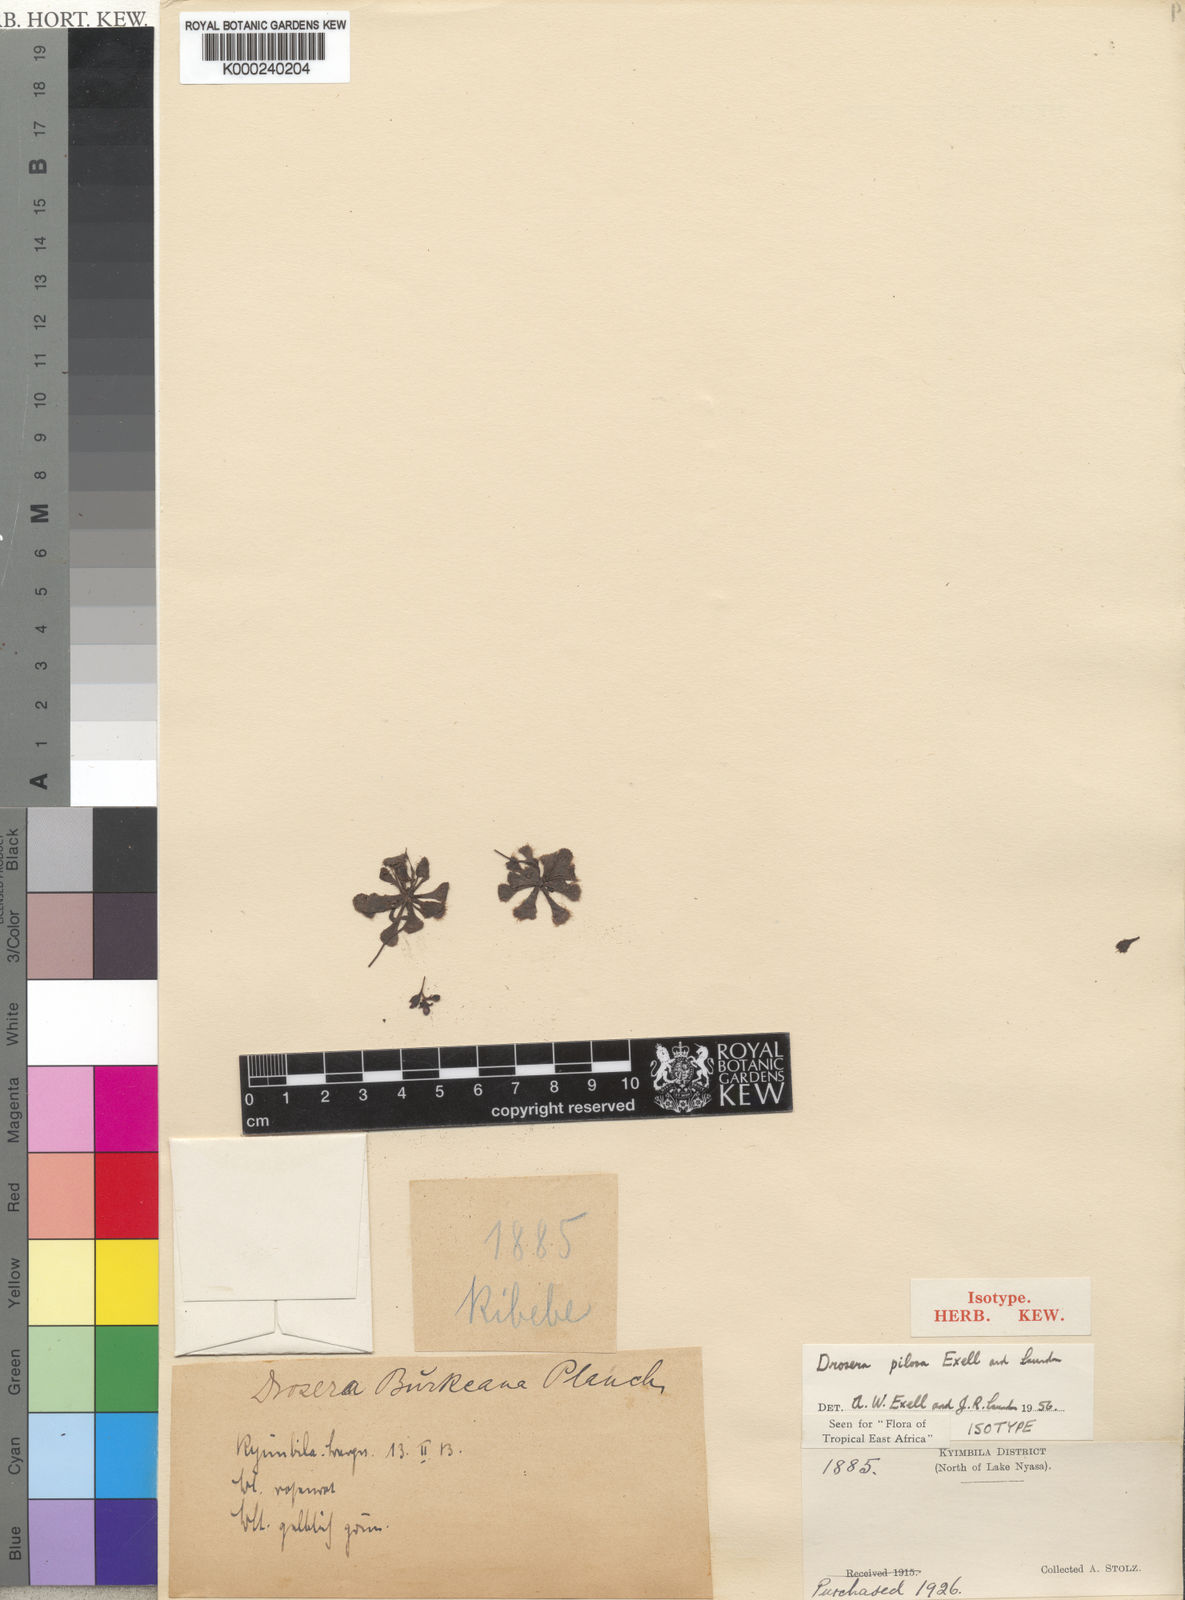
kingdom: Plantae
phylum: Tracheophyta
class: Magnoliopsida
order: Caryophyllales
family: Droseraceae
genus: Drosera
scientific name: Drosera pilosa
